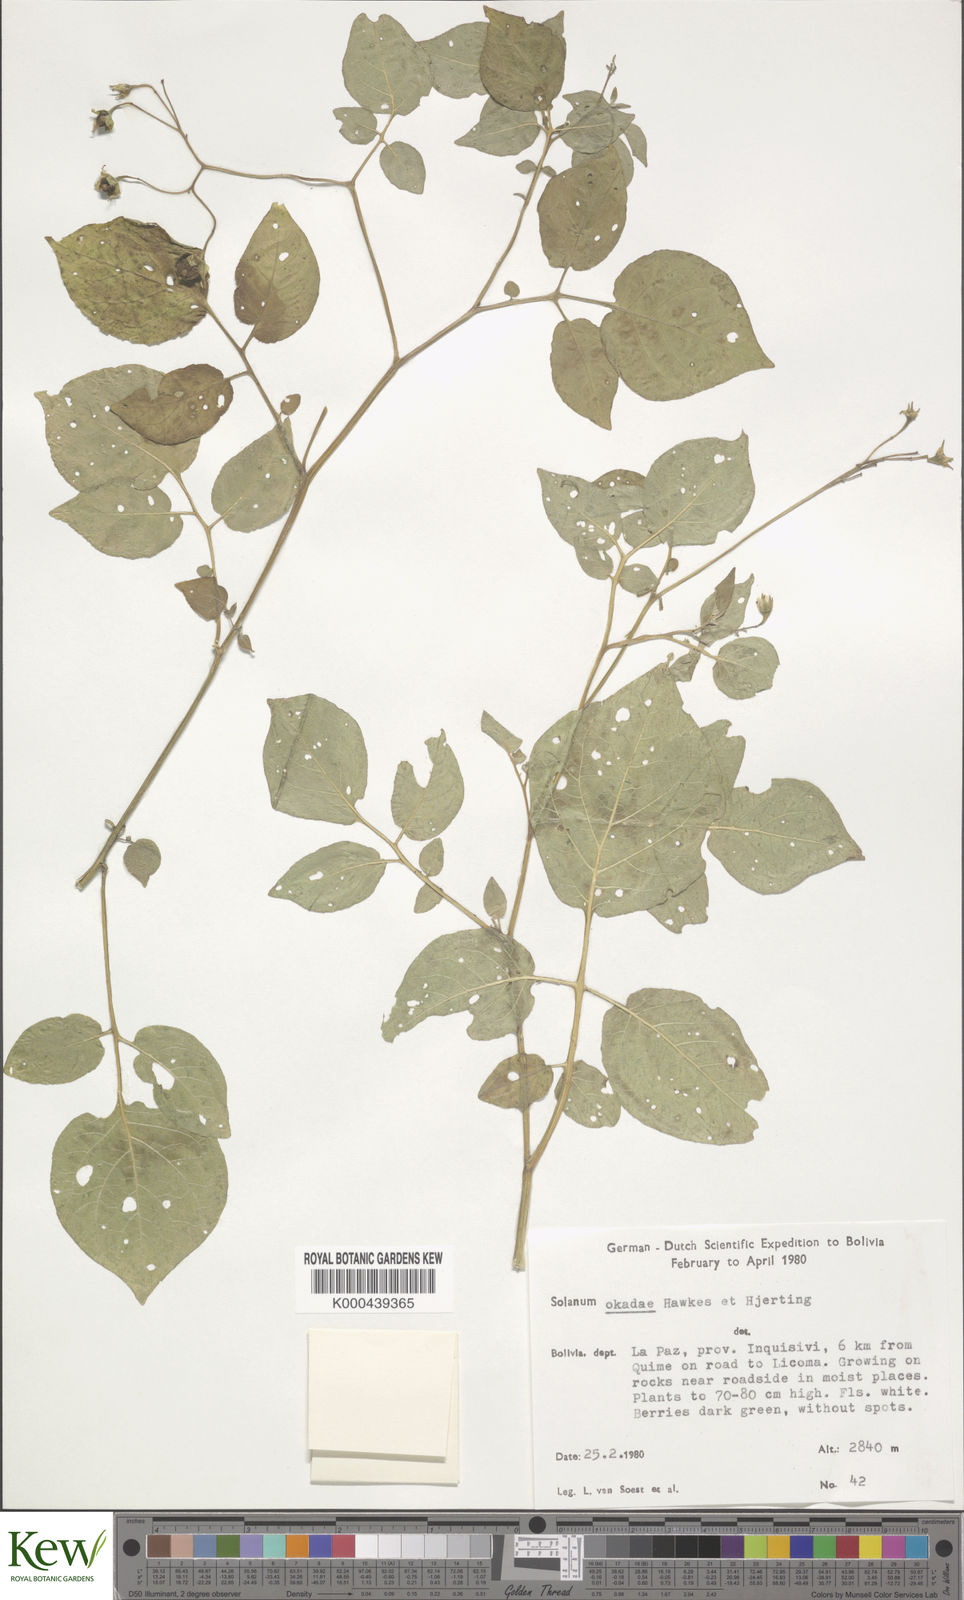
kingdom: Plantae
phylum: Tracheophyta
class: Magnoliopsida
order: Solanales
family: Solanaceae
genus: Solanum
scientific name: Solanum okadae
